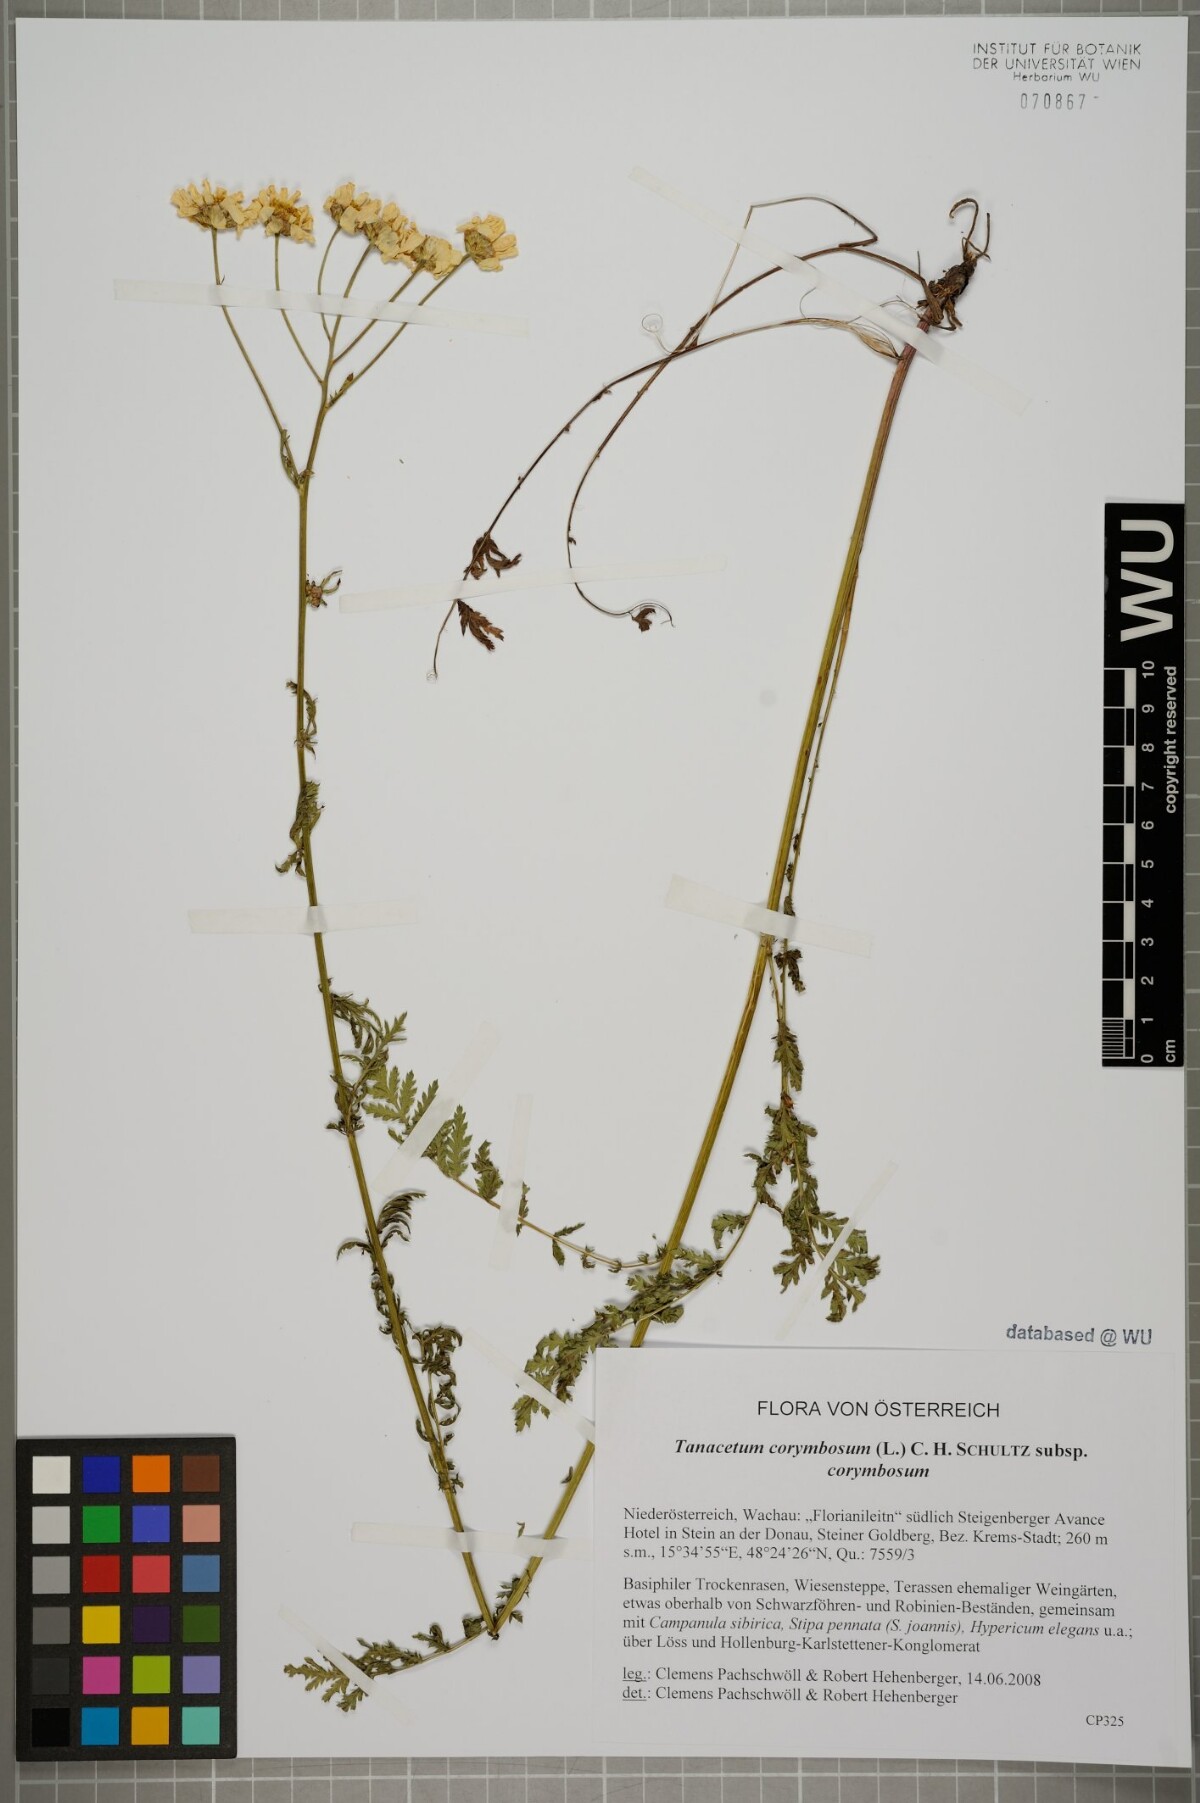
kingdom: Plantae
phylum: Tracheophyta
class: Magnoliopsida
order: Asterales
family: Asteraceae
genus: Tanacetum
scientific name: Tanacetum corymbosum
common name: Scentless feverfew
